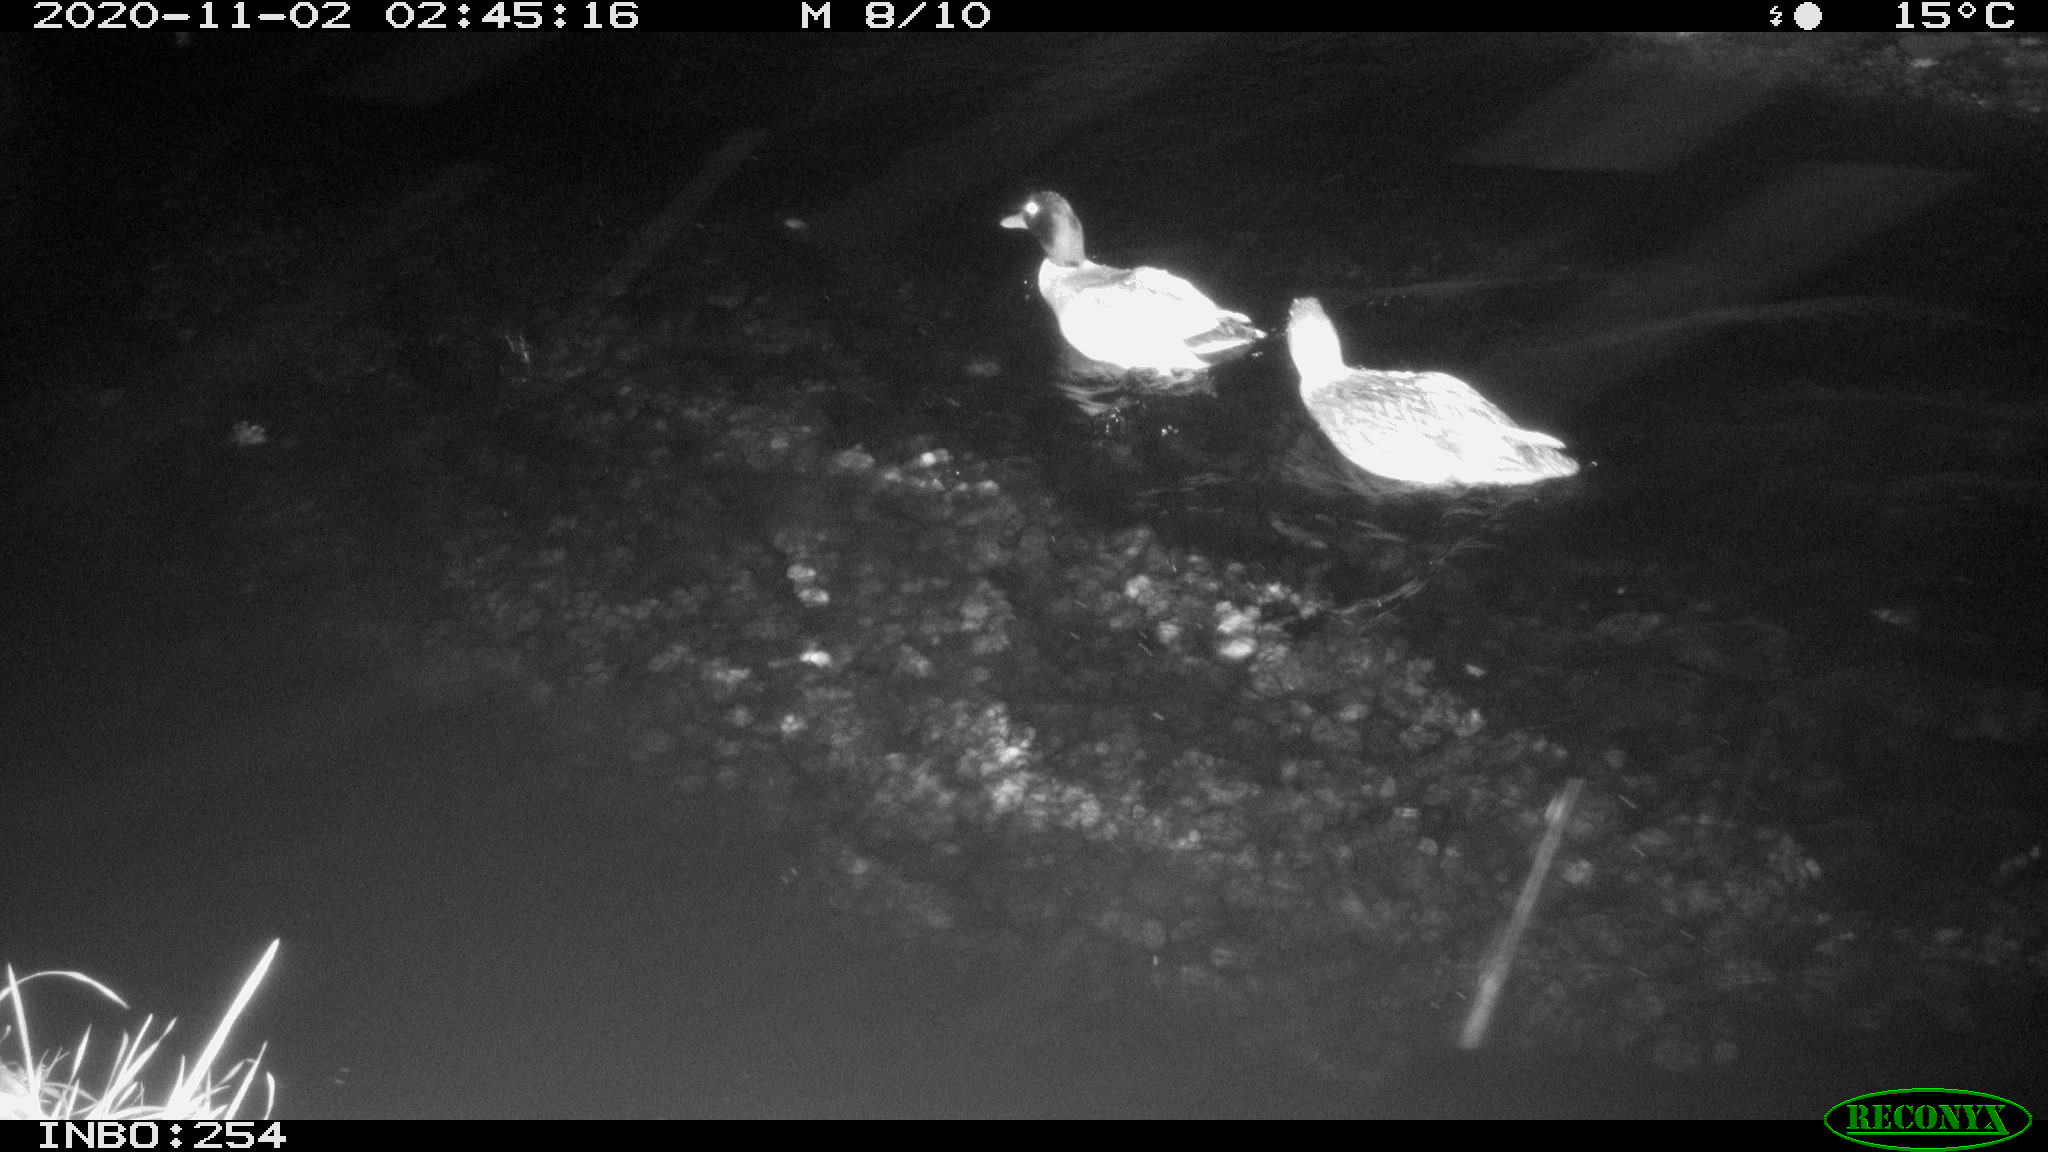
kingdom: Animalia
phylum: Chordata
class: Aves
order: Anseriformes
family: Anatidae
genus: Anas
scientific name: Anas platyrhynchos
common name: Mallard
